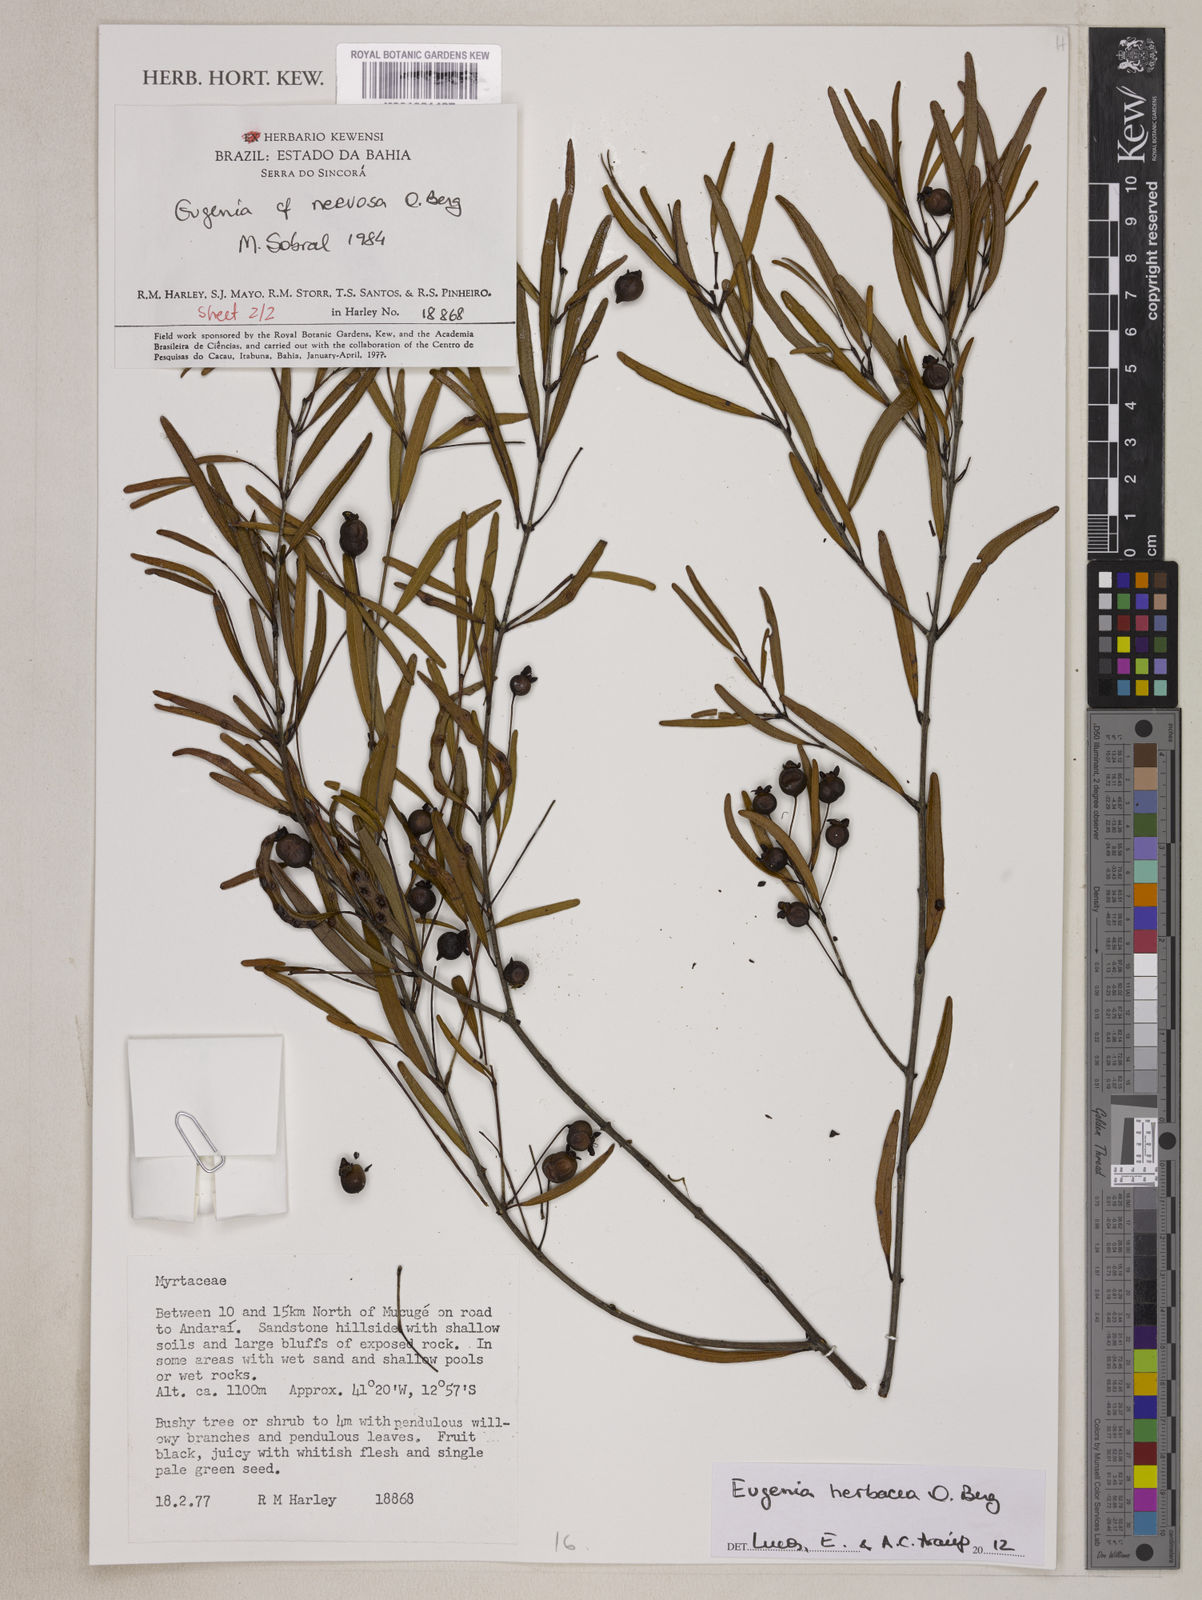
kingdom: Plantae
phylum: Tracheophyta
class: Magnoliopsida
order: Myrtales
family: Myrtaceae
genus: Eugenia
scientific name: Eugenia herbacea
